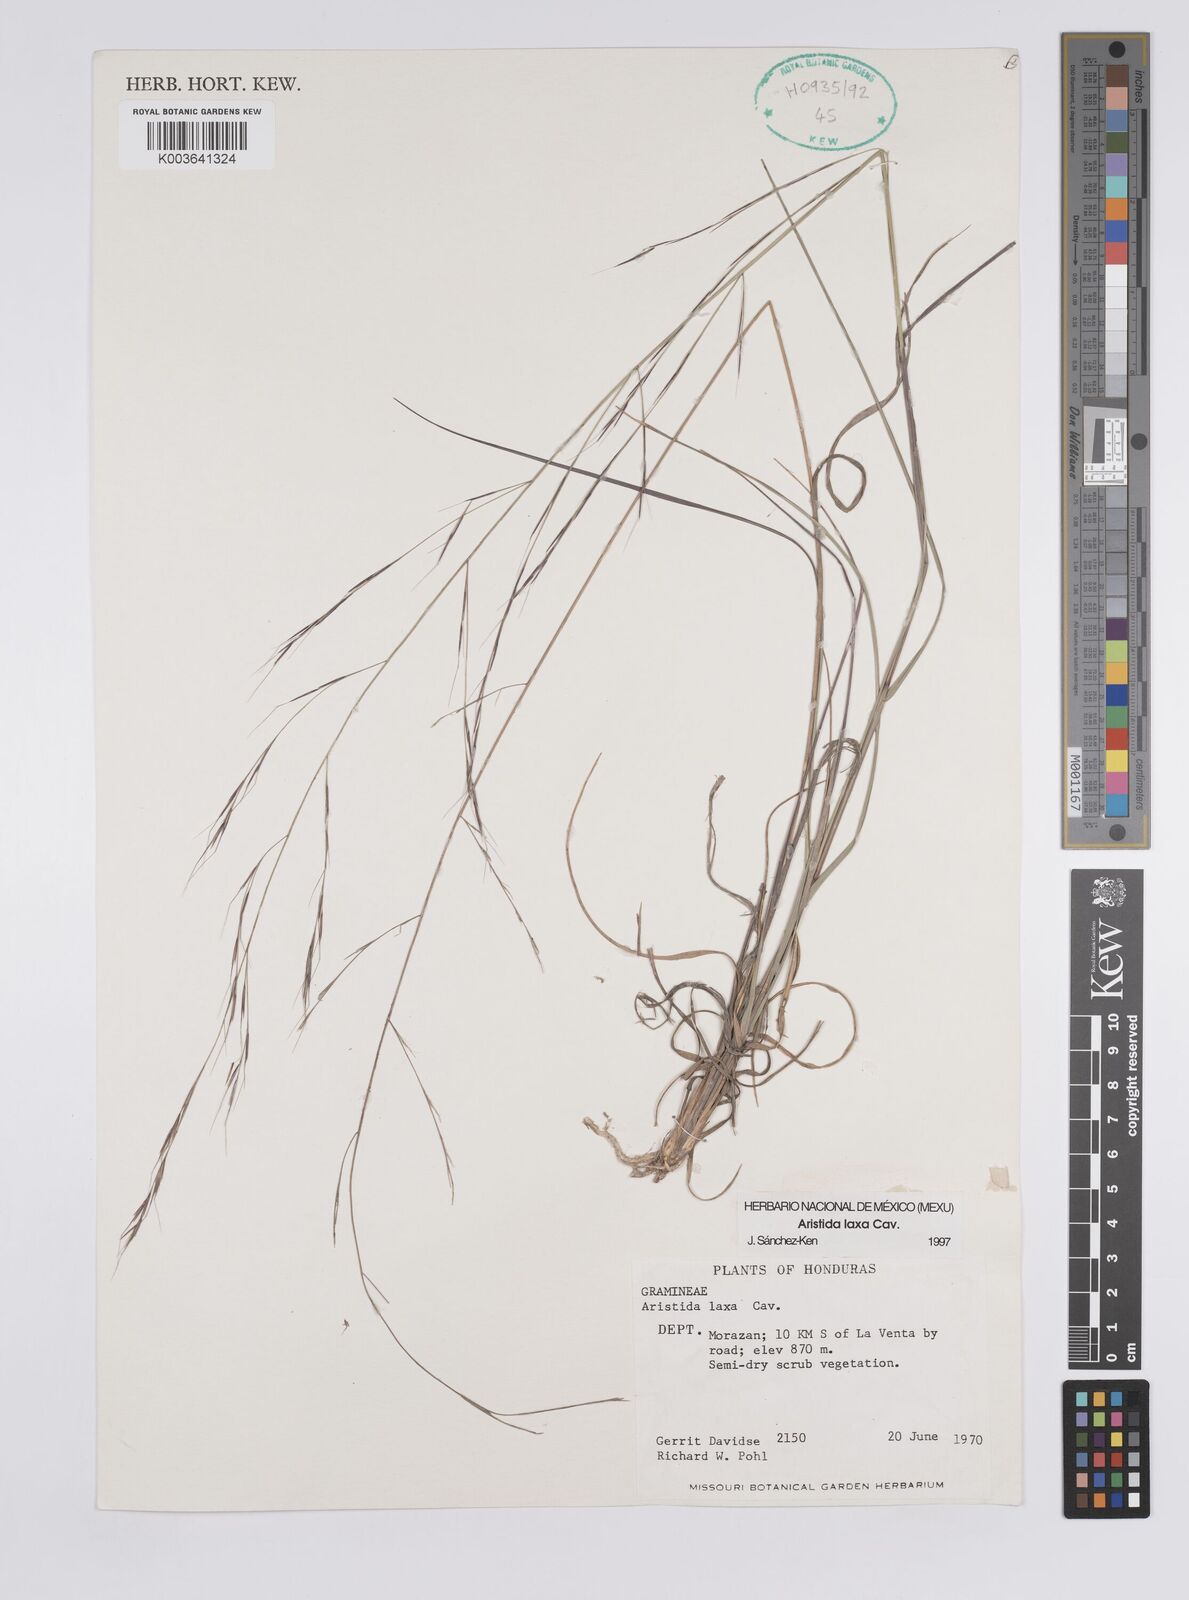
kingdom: Plantae
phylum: Tracheophyta
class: Liliopsida
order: Poales
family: Poaceae
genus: Aristida
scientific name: Aristida laxa
